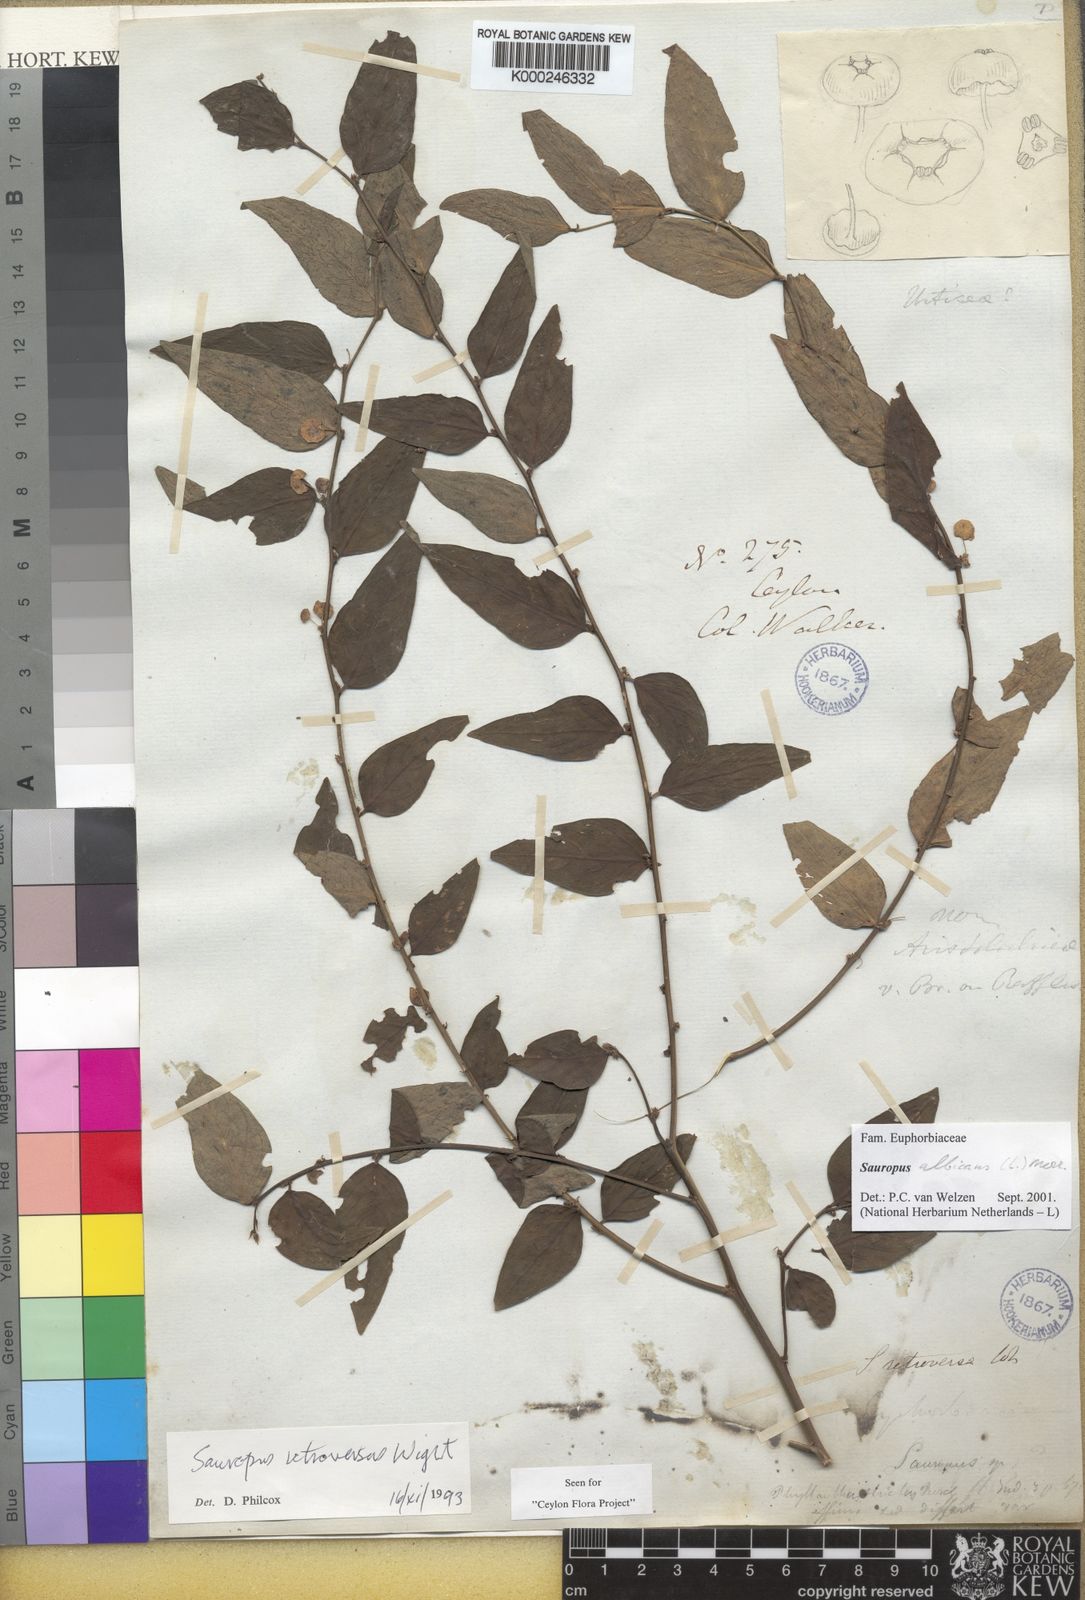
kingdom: Plantae
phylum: Tracheophyta
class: Magnoliopsida
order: Malpighiales
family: Phyllanthaceae
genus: Breynia
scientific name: Breynia androgyna
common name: Star gooseberry
